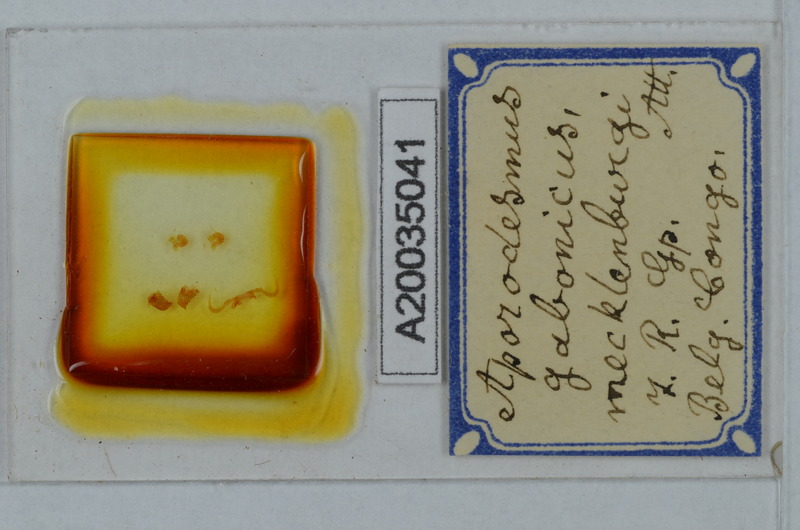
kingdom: Animalia
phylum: Arthropoda
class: Diplopoda
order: Polydesmida
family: Pyrgodesmidae
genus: Aporodesmus
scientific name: Aporodesmus gabonicus
